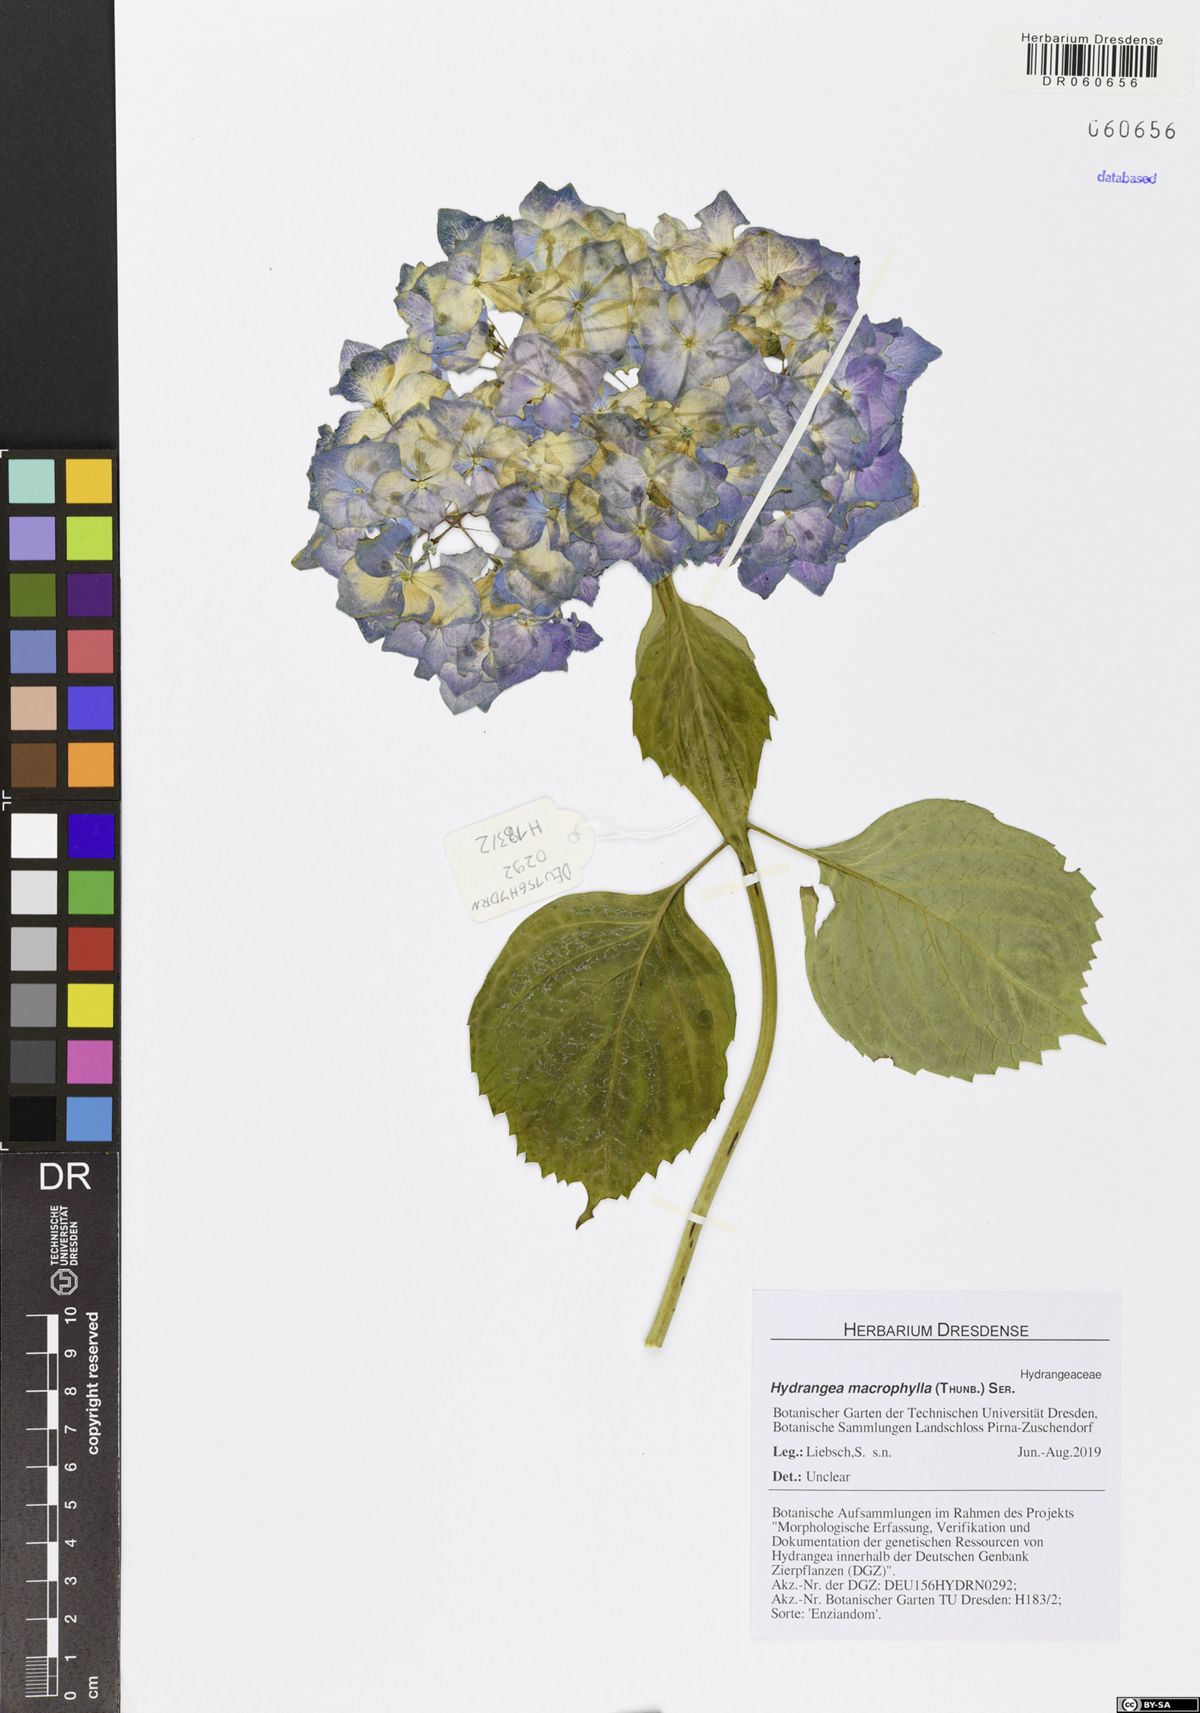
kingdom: Plantae
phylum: Tracheophyta
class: Magnoliopsida
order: Cornales
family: Hydrangeaceae
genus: Hydrangea
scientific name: Hydrangea macrophylla
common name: Hydrangea
